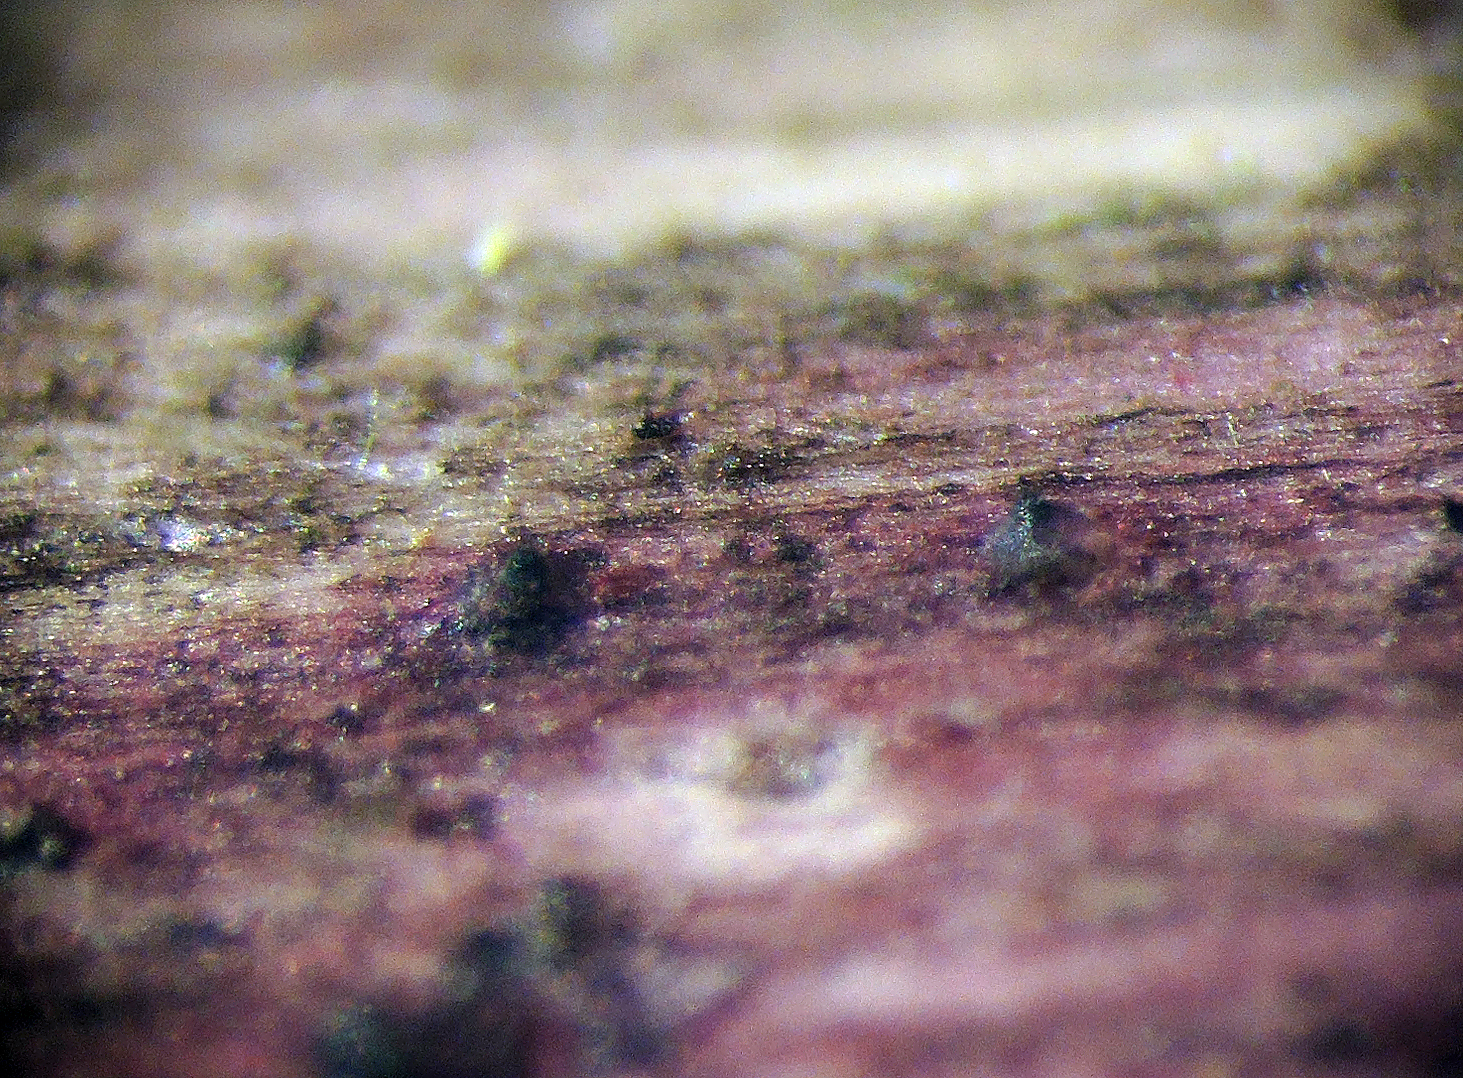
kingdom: Fungi
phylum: Ascomycota
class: Dothideomycetes
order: Pleosporales
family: Amniculicolaceae
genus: Murispora
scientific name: Murispora hawksworthii
